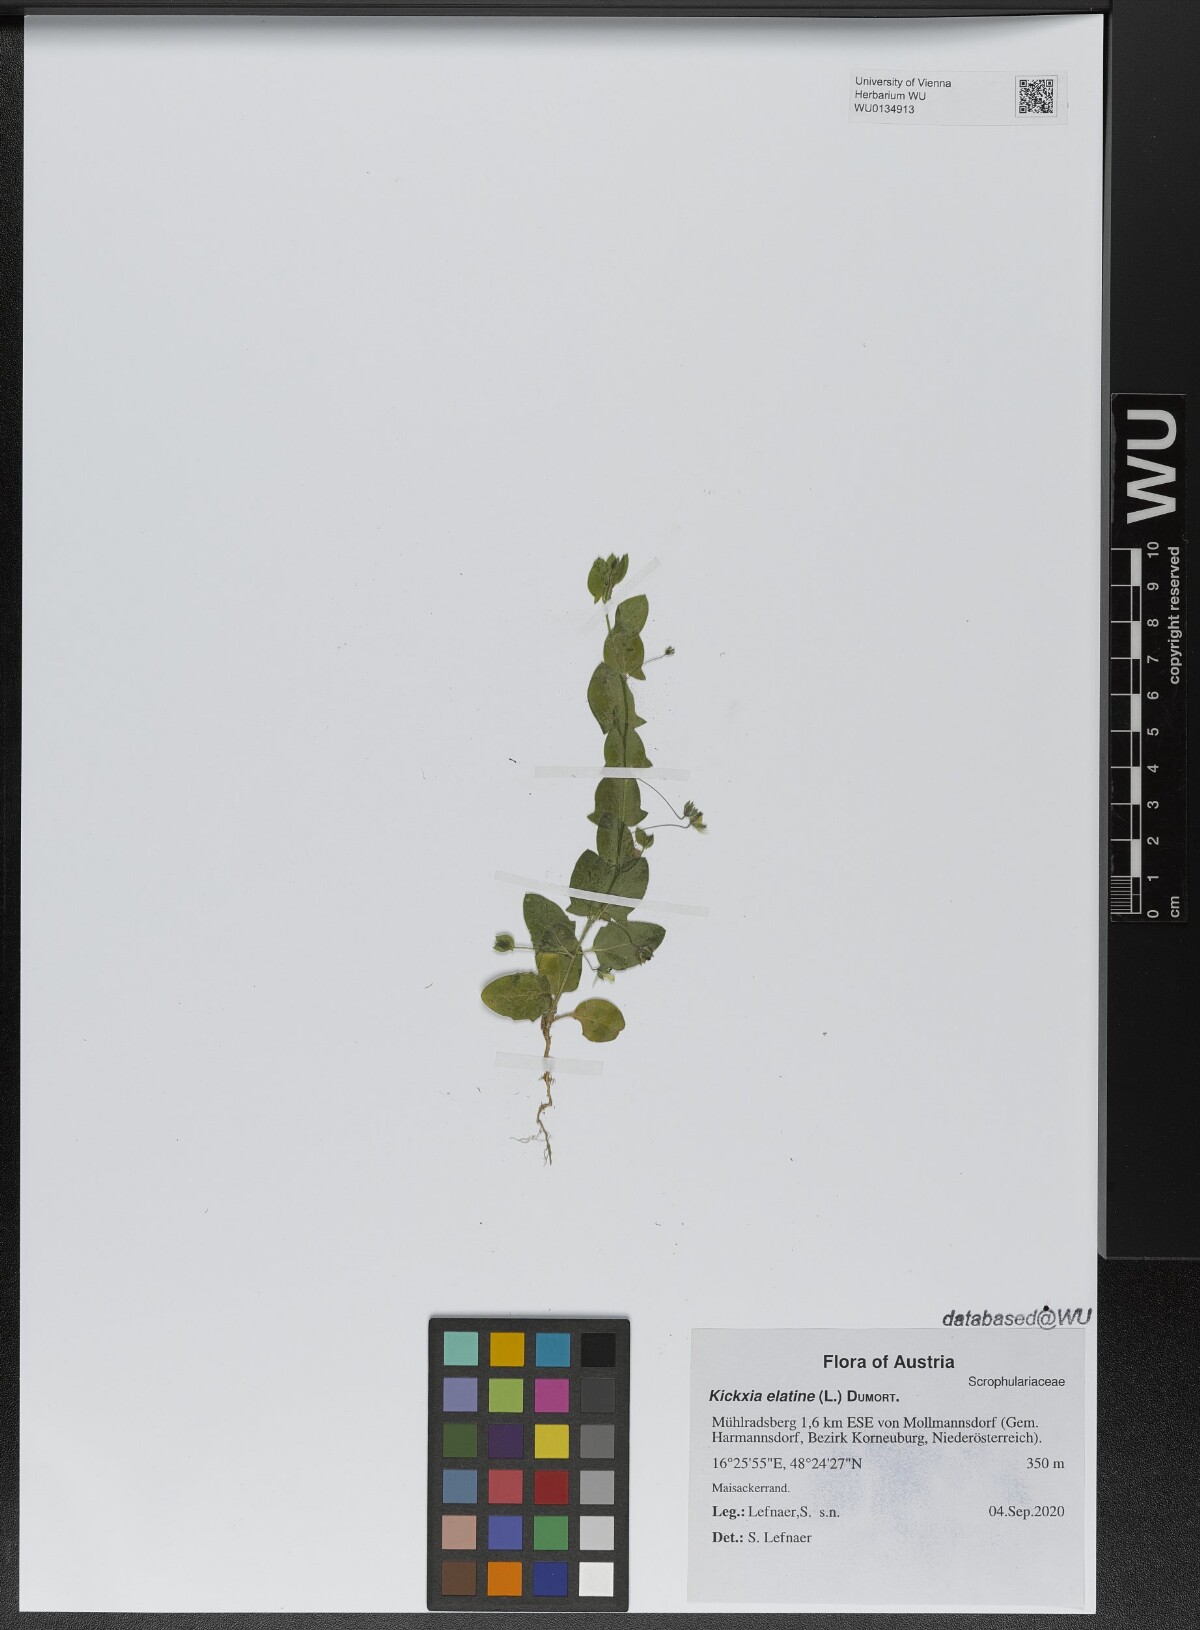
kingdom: Plantae
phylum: Tracheophyta
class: Magnoliopsida
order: Lamiales
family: Plantaginaceae
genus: Kickxia
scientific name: Kickxia elatine
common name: Sharp-leaved fluellen
